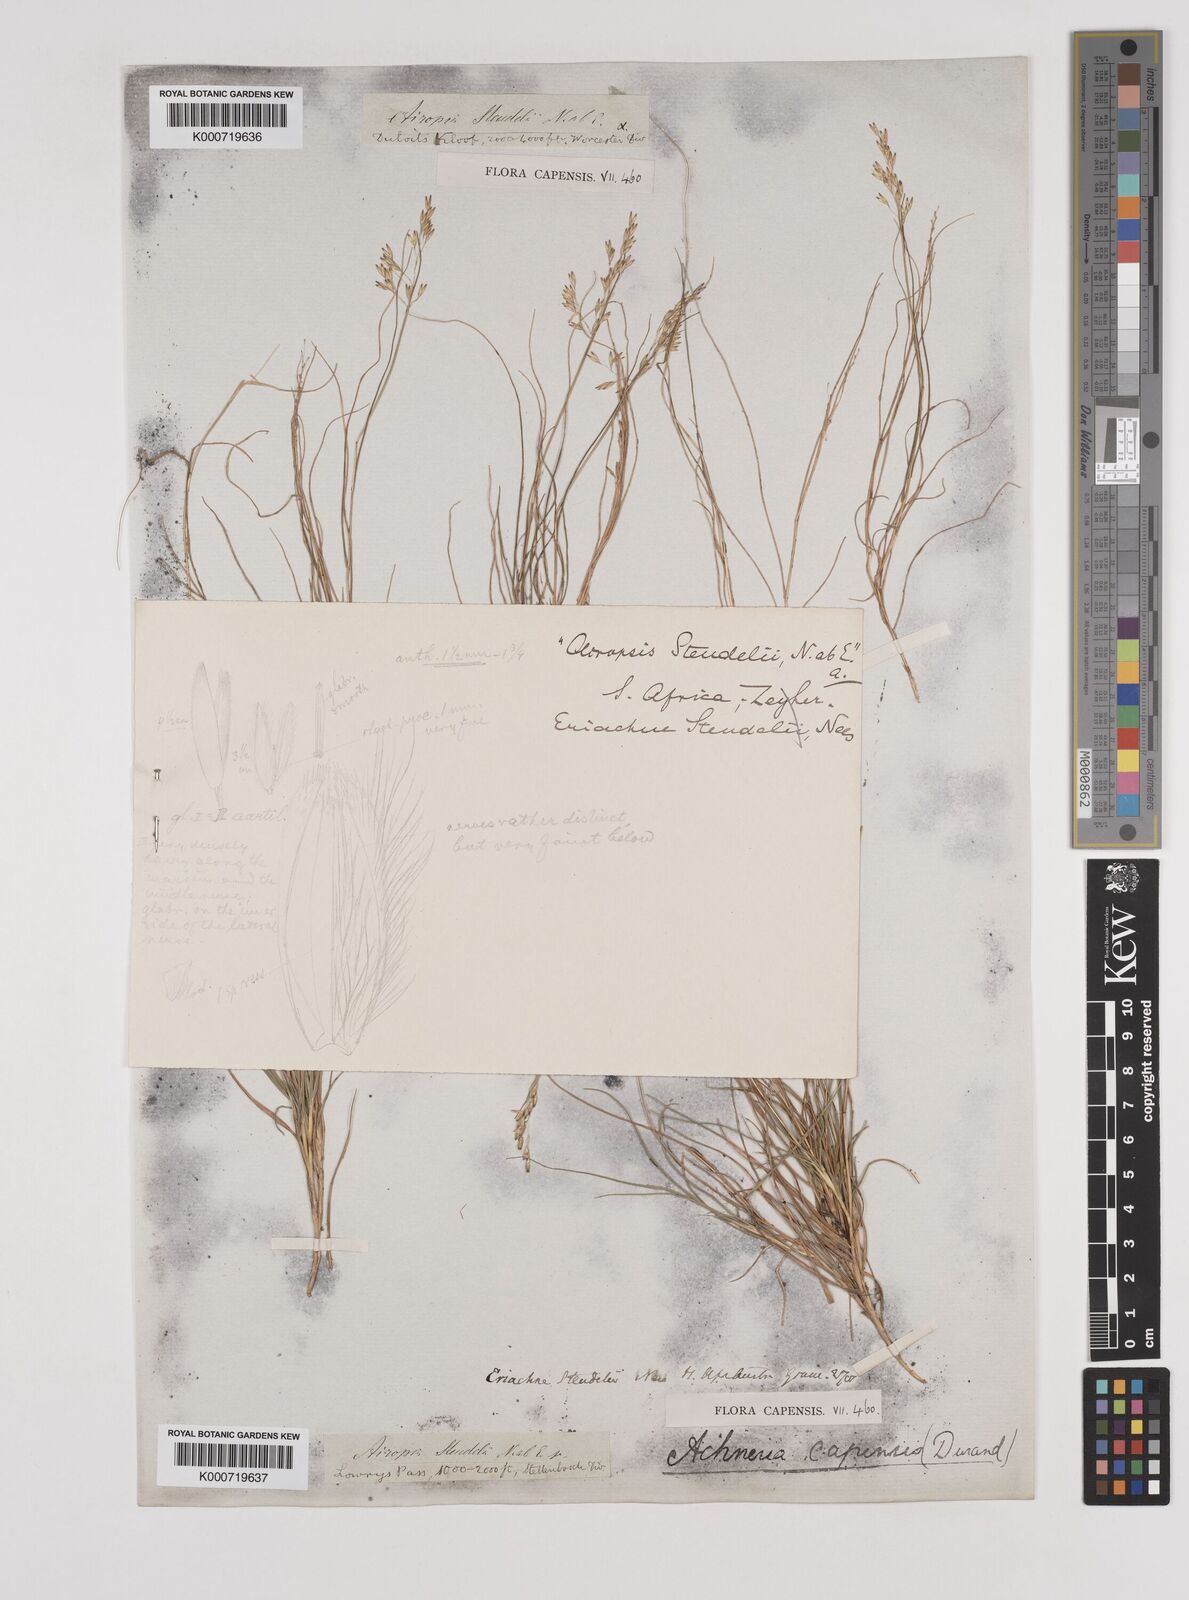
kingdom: Plantae
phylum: Tracheophyta
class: Liliopsida
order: Poales
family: Poaceae
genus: Pentameris
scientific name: Pentameris malouinensis
